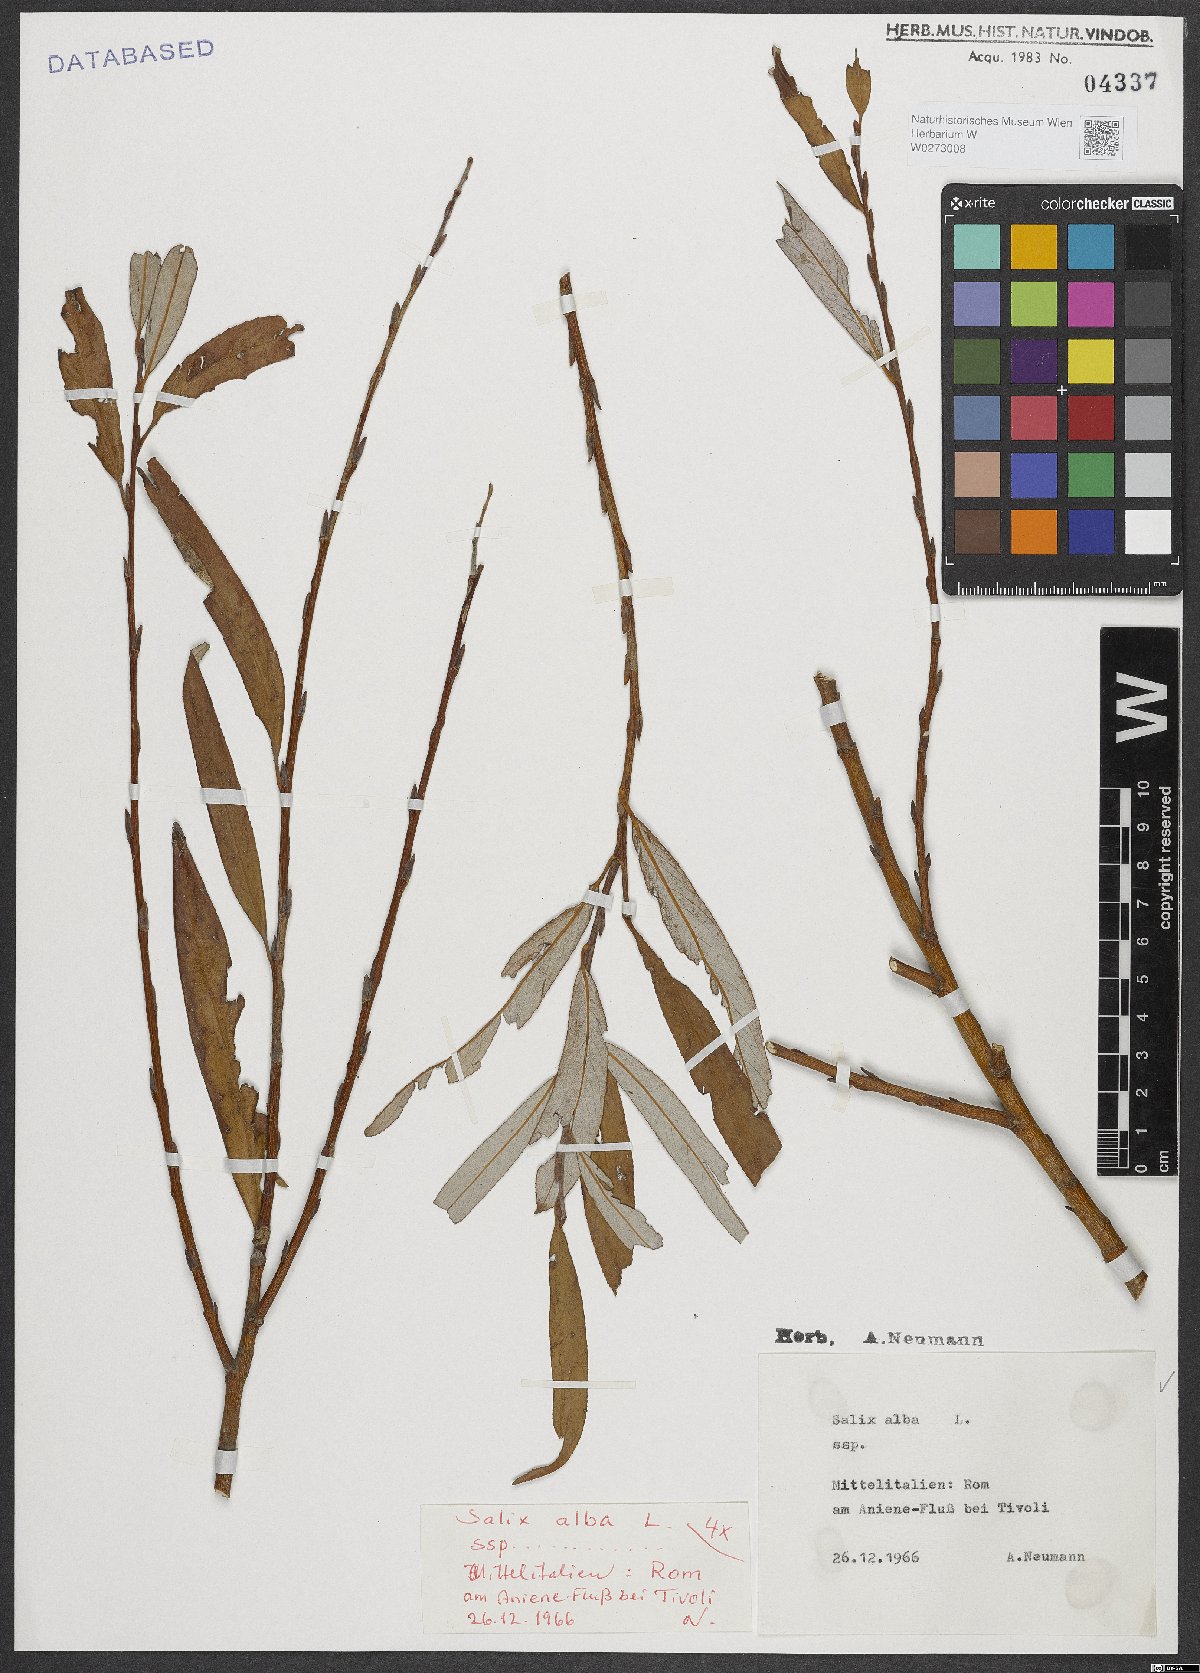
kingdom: Plantae
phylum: Tracheophyta
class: Magnoliopsida
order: Malpighiales
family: Salicaceae
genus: Salix
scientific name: Salix alba
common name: White willow
